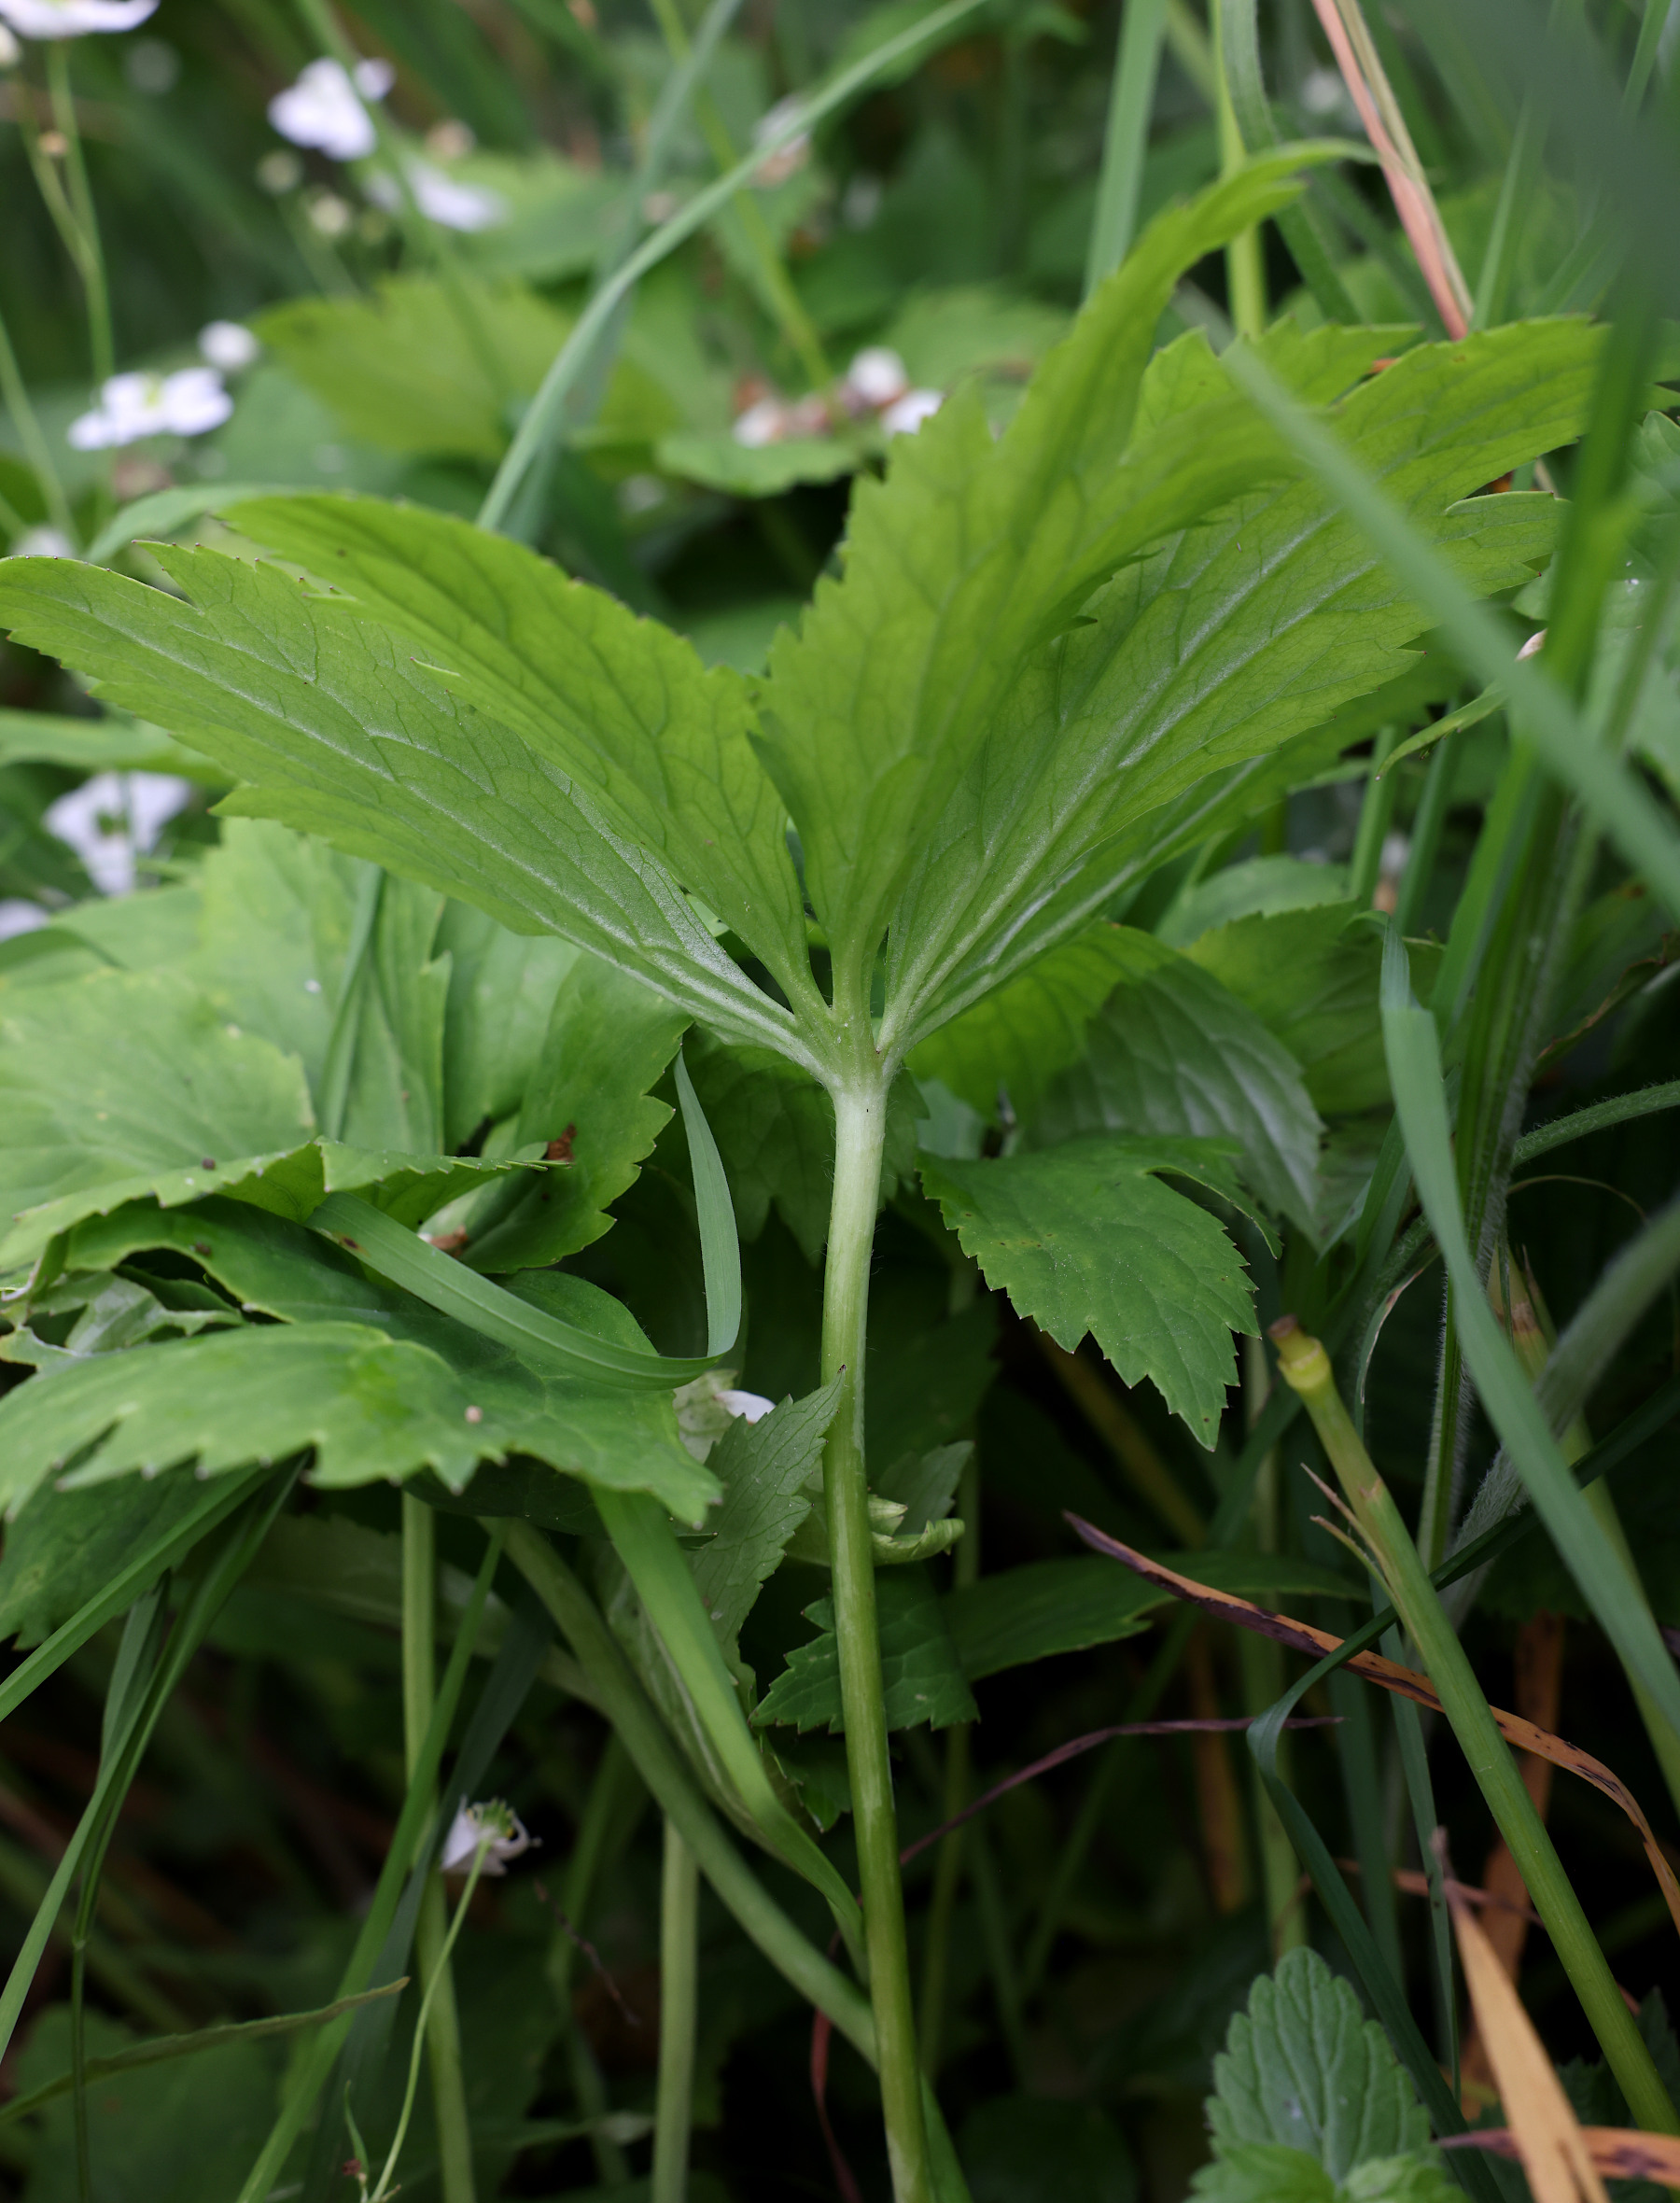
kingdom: Plantae
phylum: Tracheophyta
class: Magnoliopsida
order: Ranunculales
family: Ranunculaceae
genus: Ranunculus
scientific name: Ranunculus platanifolius
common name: Lønbladet ranunkel
